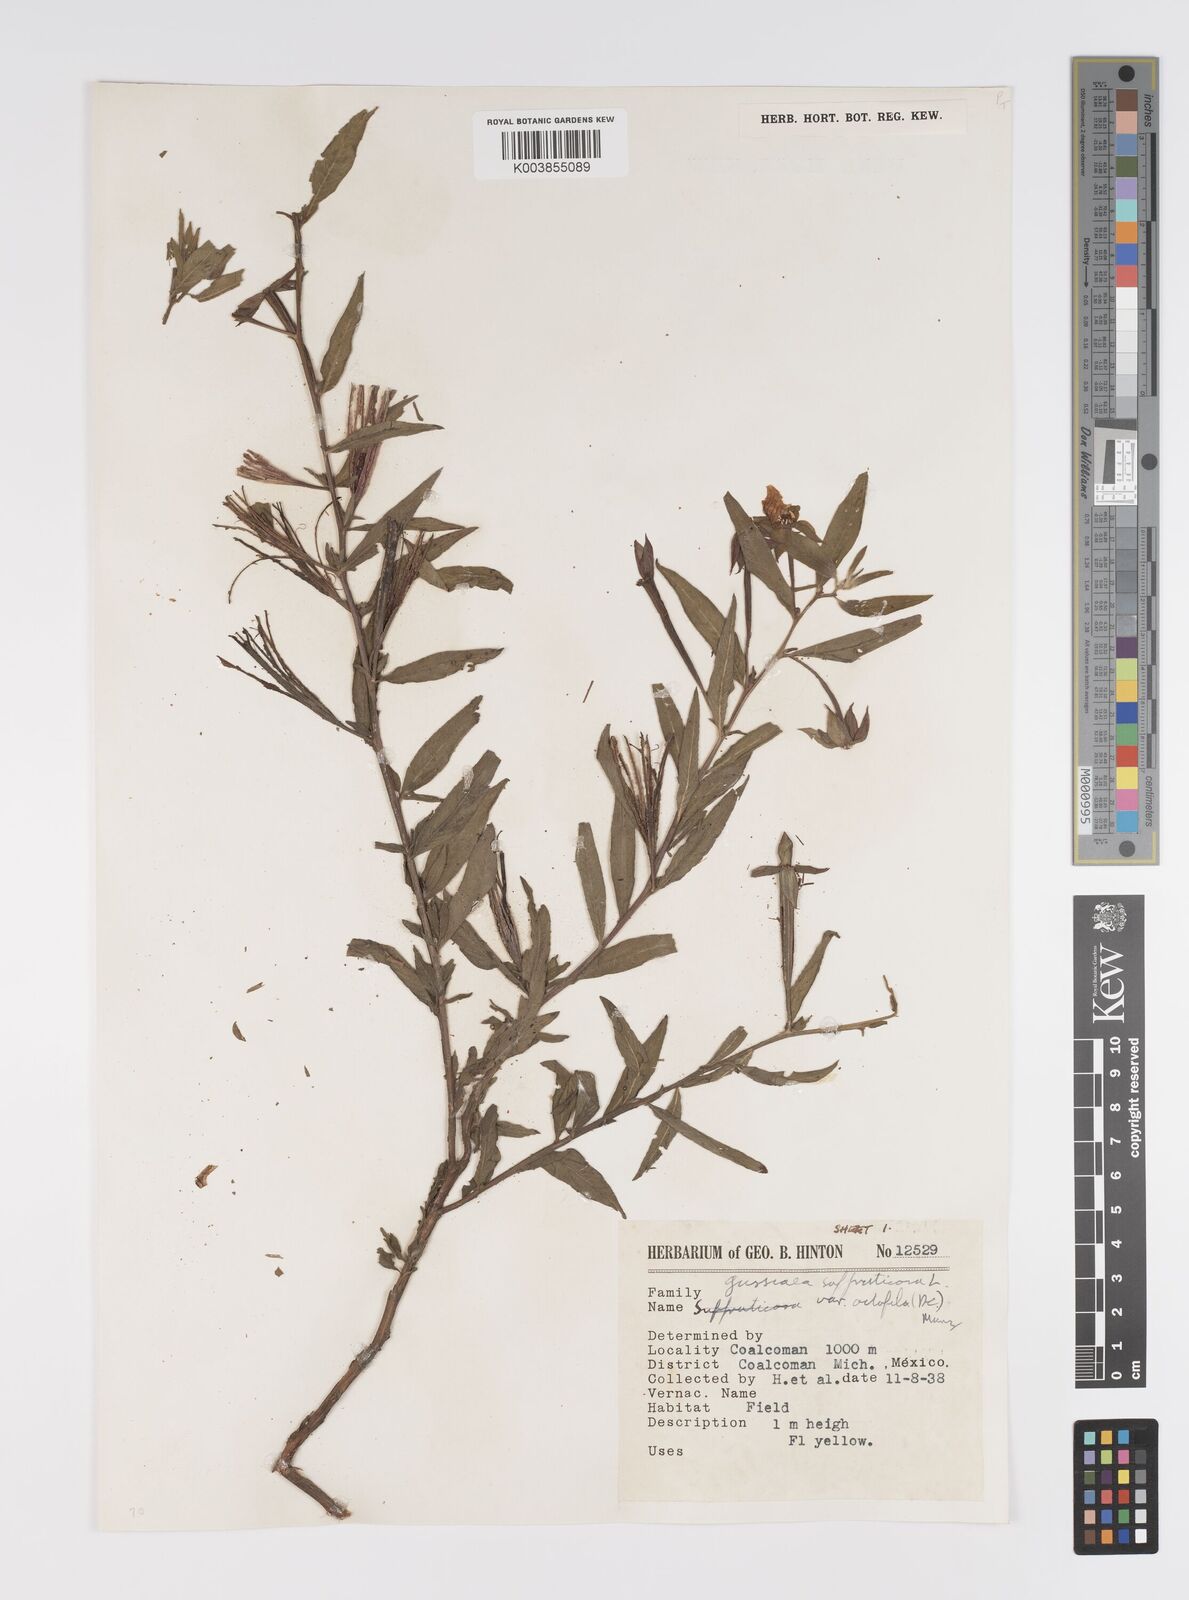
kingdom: Plantae
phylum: Tracheophyta
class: Magnoliopsida
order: Myrtales
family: Onagraceae
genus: Ludwigia
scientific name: Ludwigia octovalvis
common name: Water-primrose
